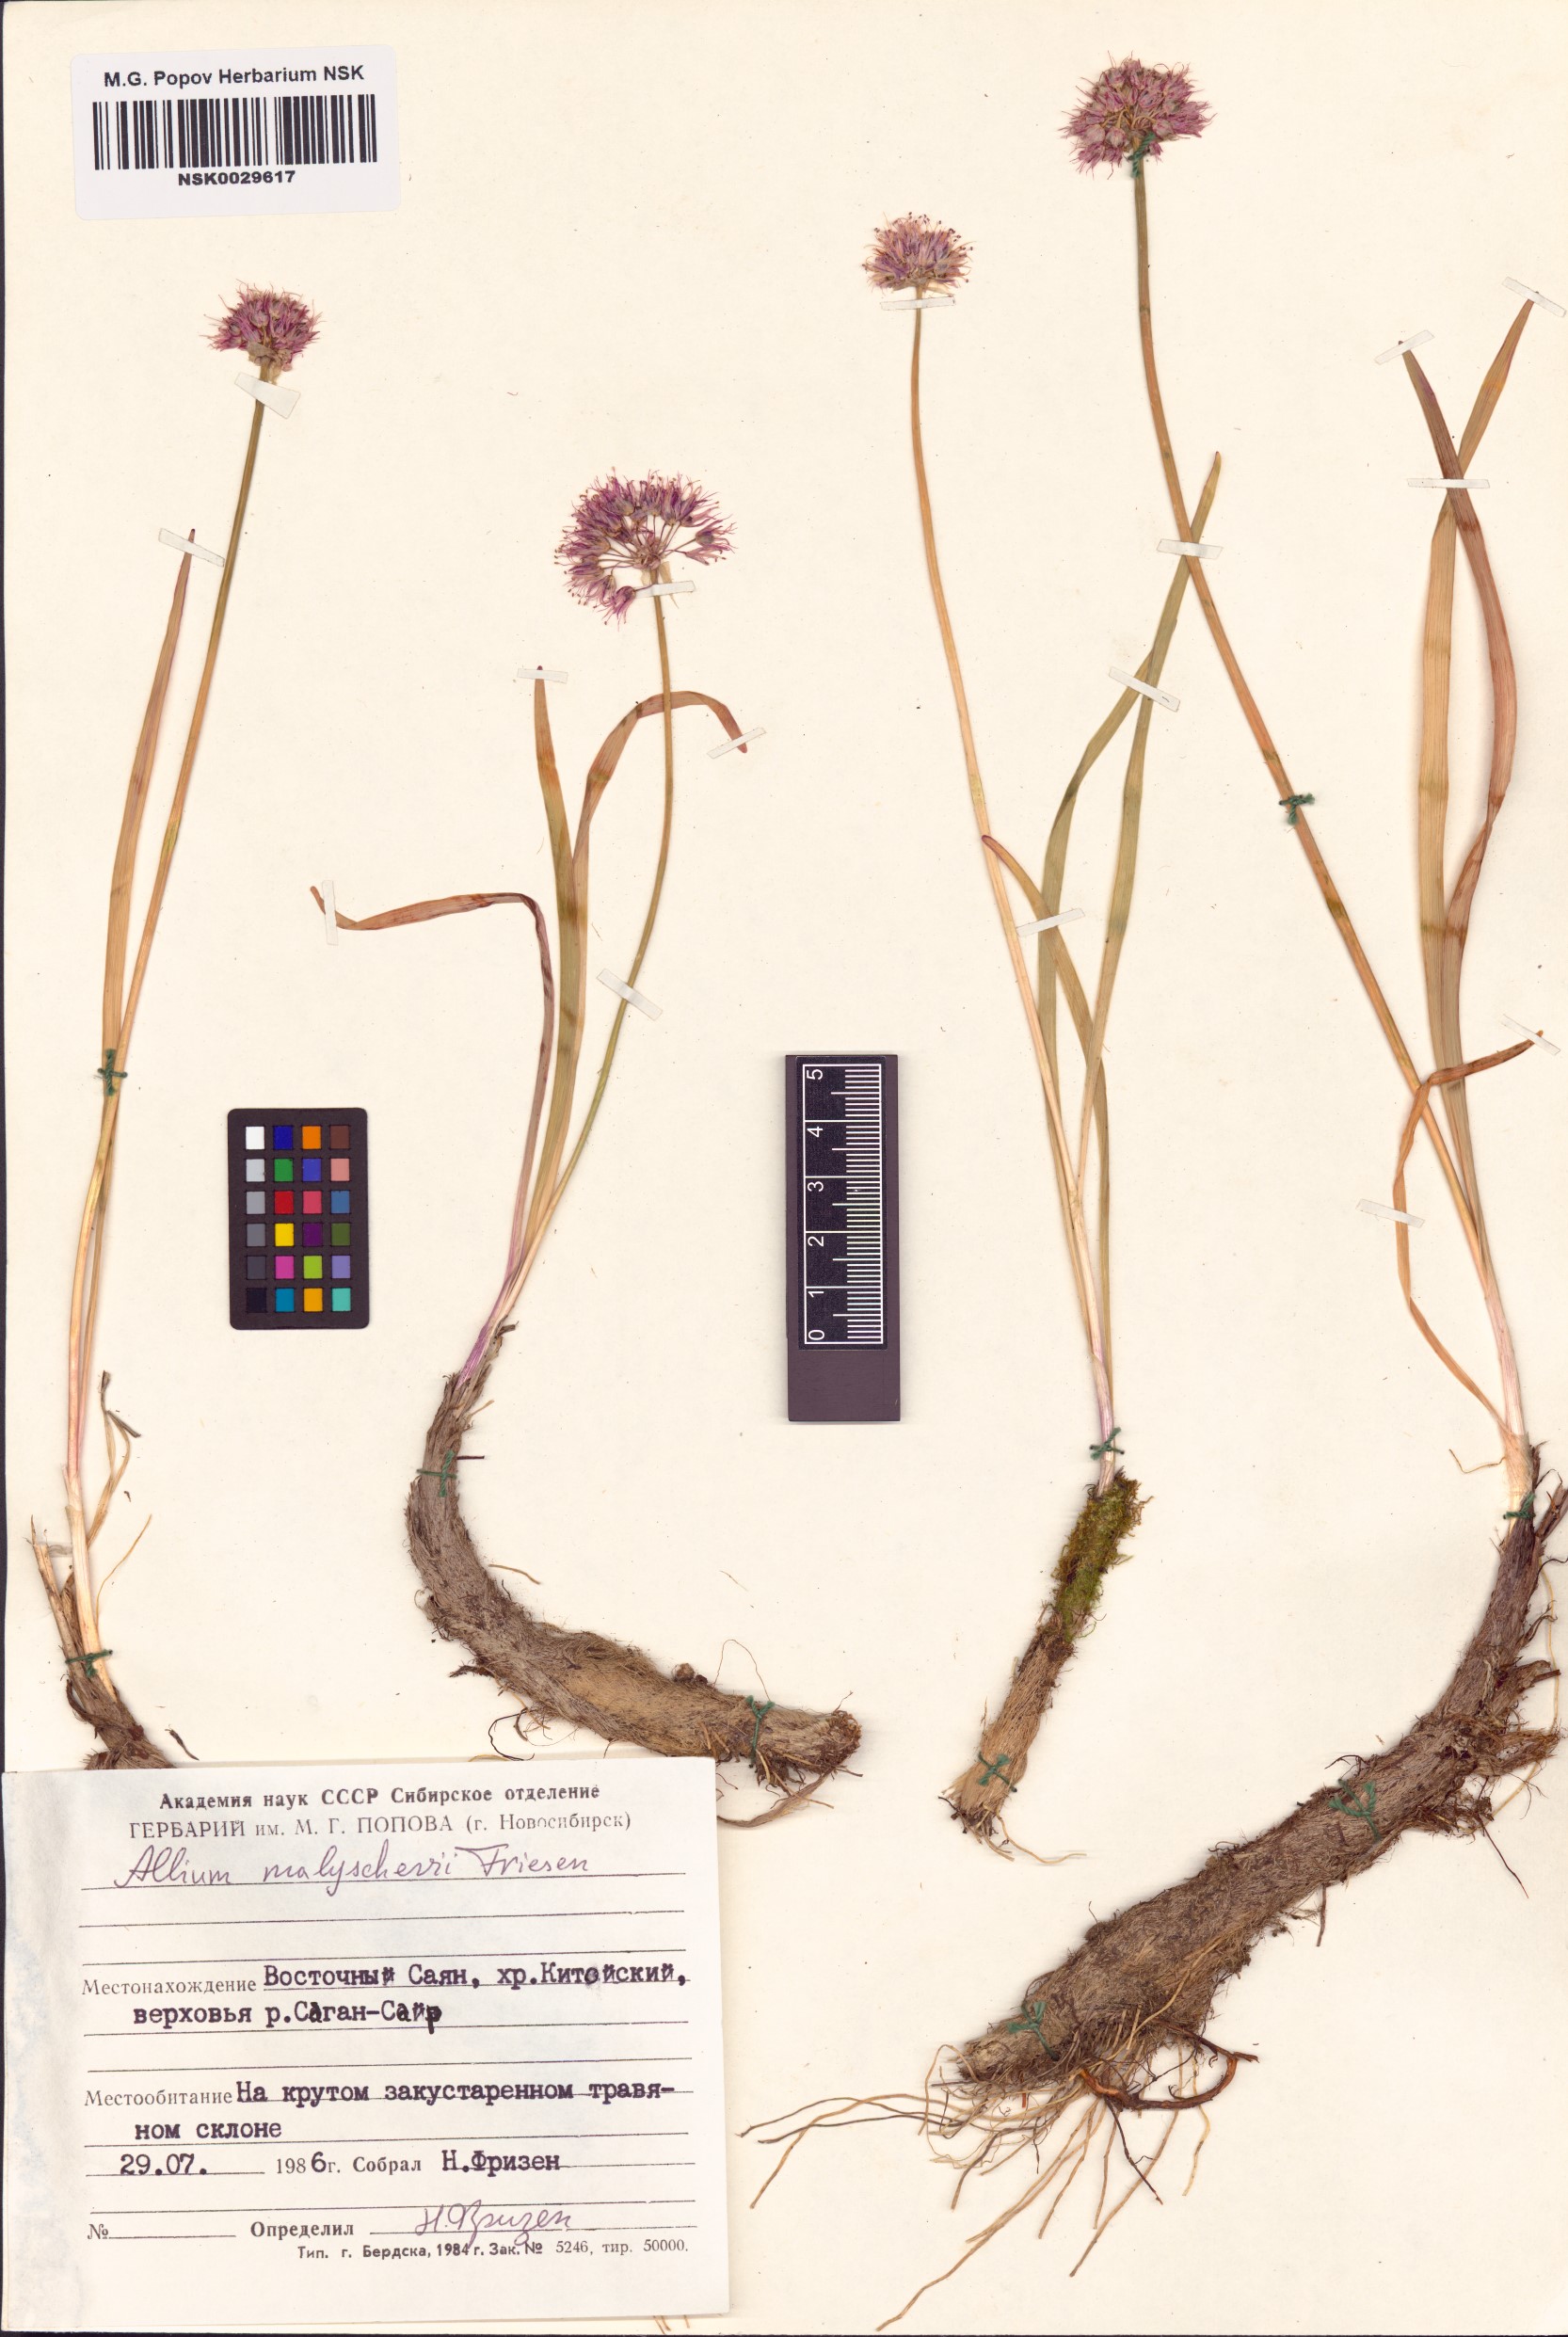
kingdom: Plantae
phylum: Tracheophyta
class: Liliopsida
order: Asparagales
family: Amaryllidaceae
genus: Allium
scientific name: Allium malyschevii
